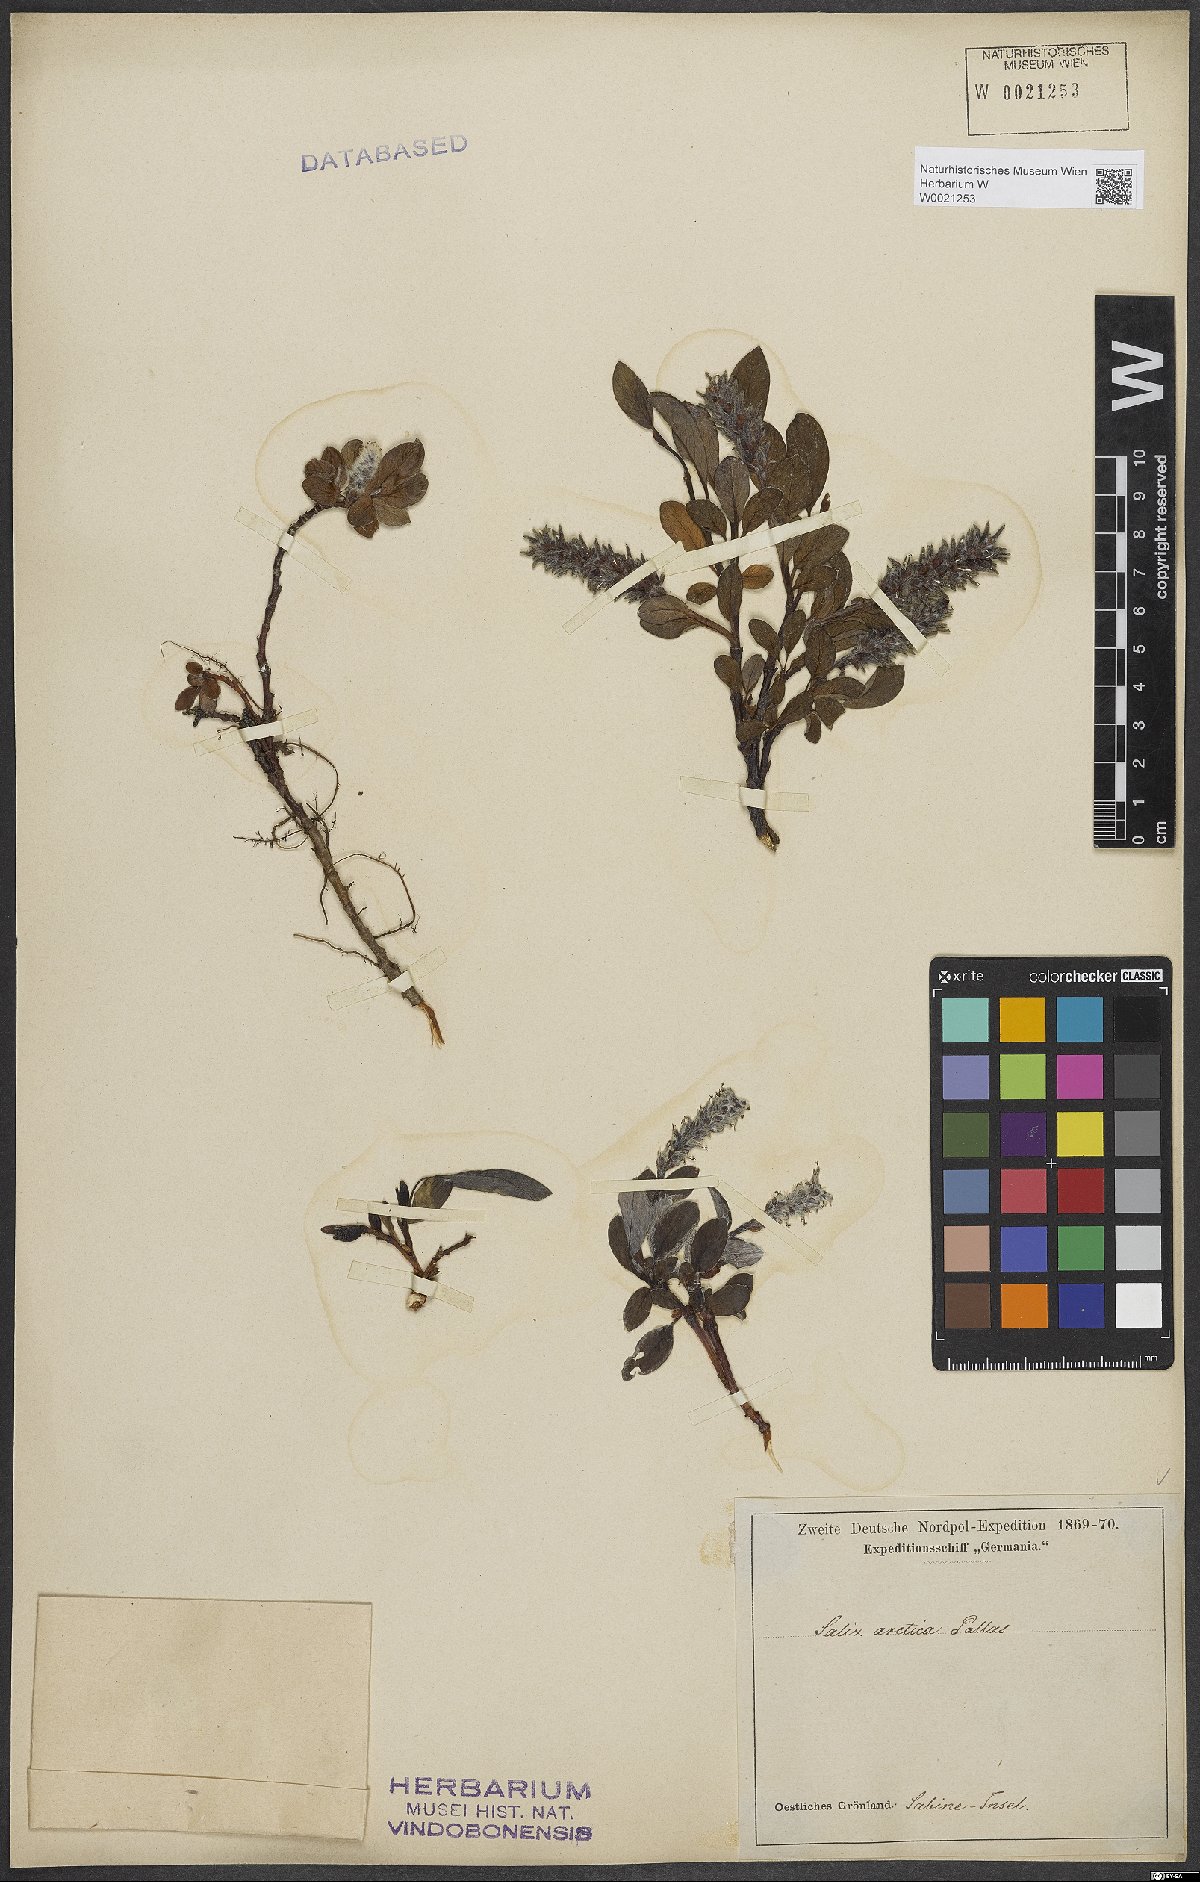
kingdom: Plantae
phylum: Tracheophyta
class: Magnoliopsida
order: Malpighiales
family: Salicaceae
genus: Salix
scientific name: Salix arctica
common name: Arctic willow
